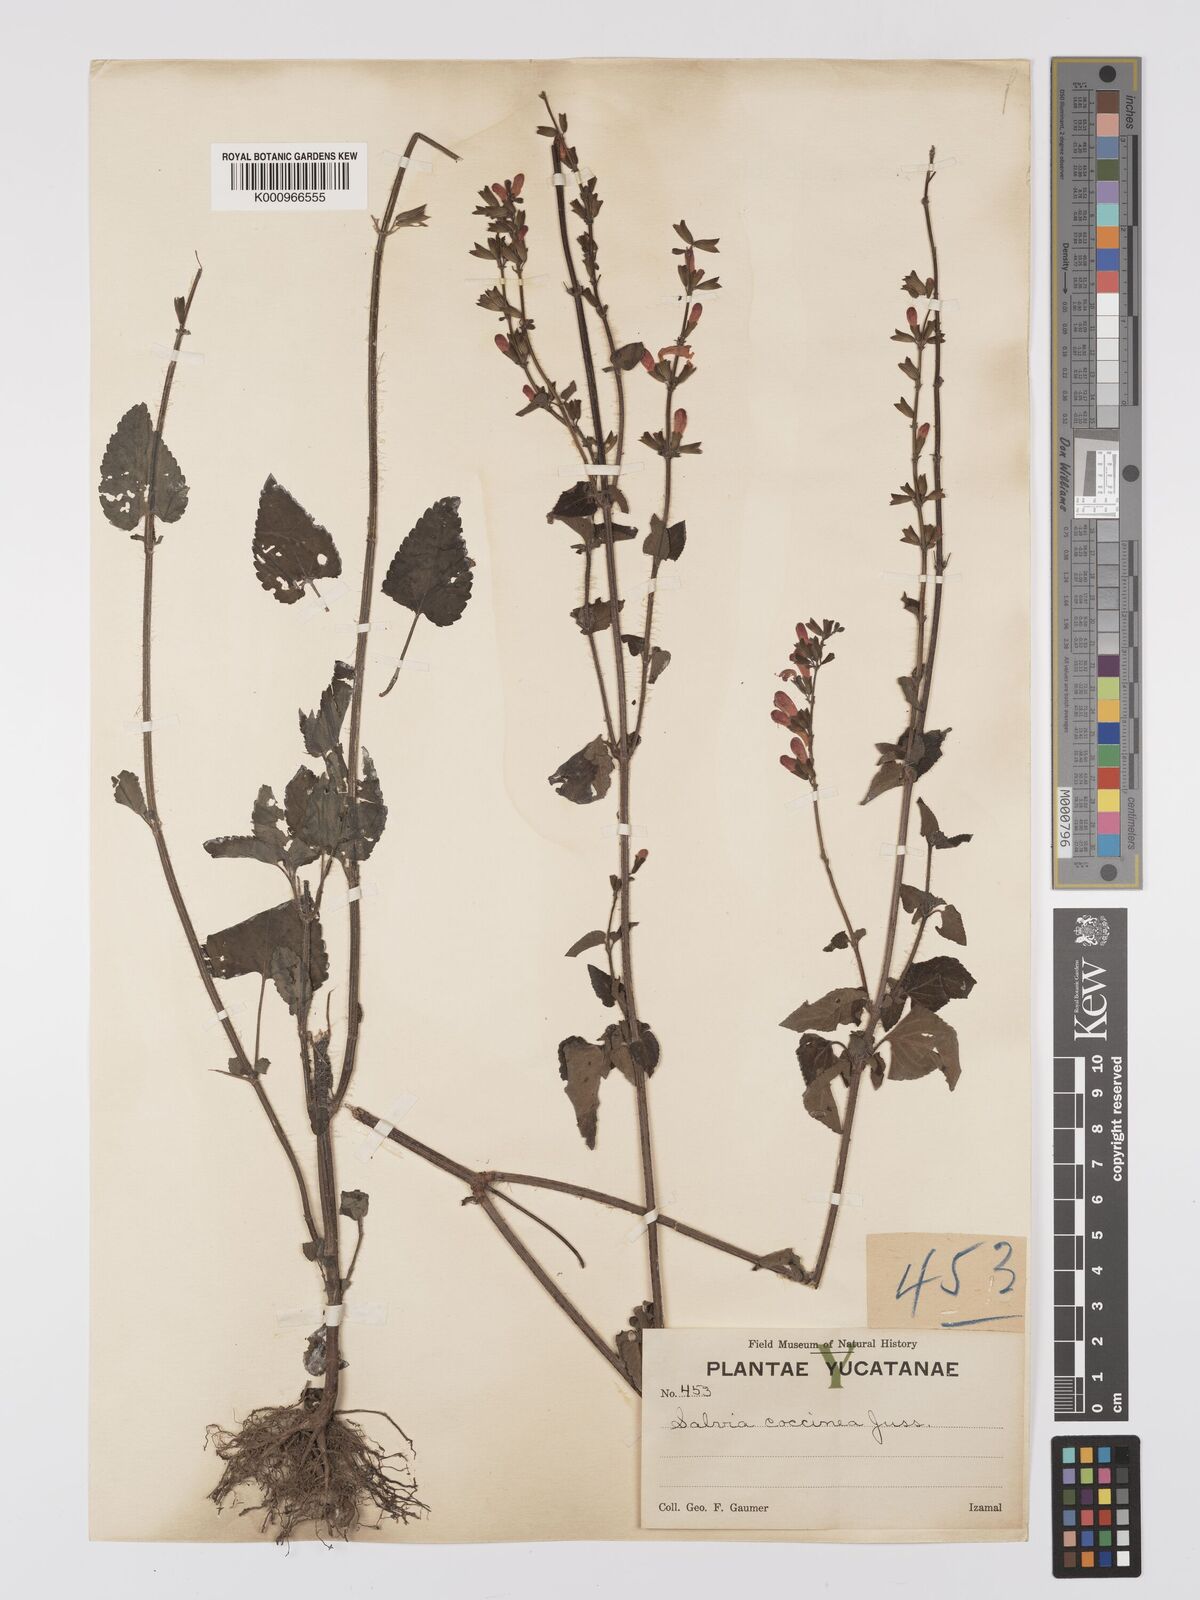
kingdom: Plantae
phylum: Tracheophyta
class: Magnoliopsida
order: Lamiales
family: Lamiaceae
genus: Salvia
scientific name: Salvia
